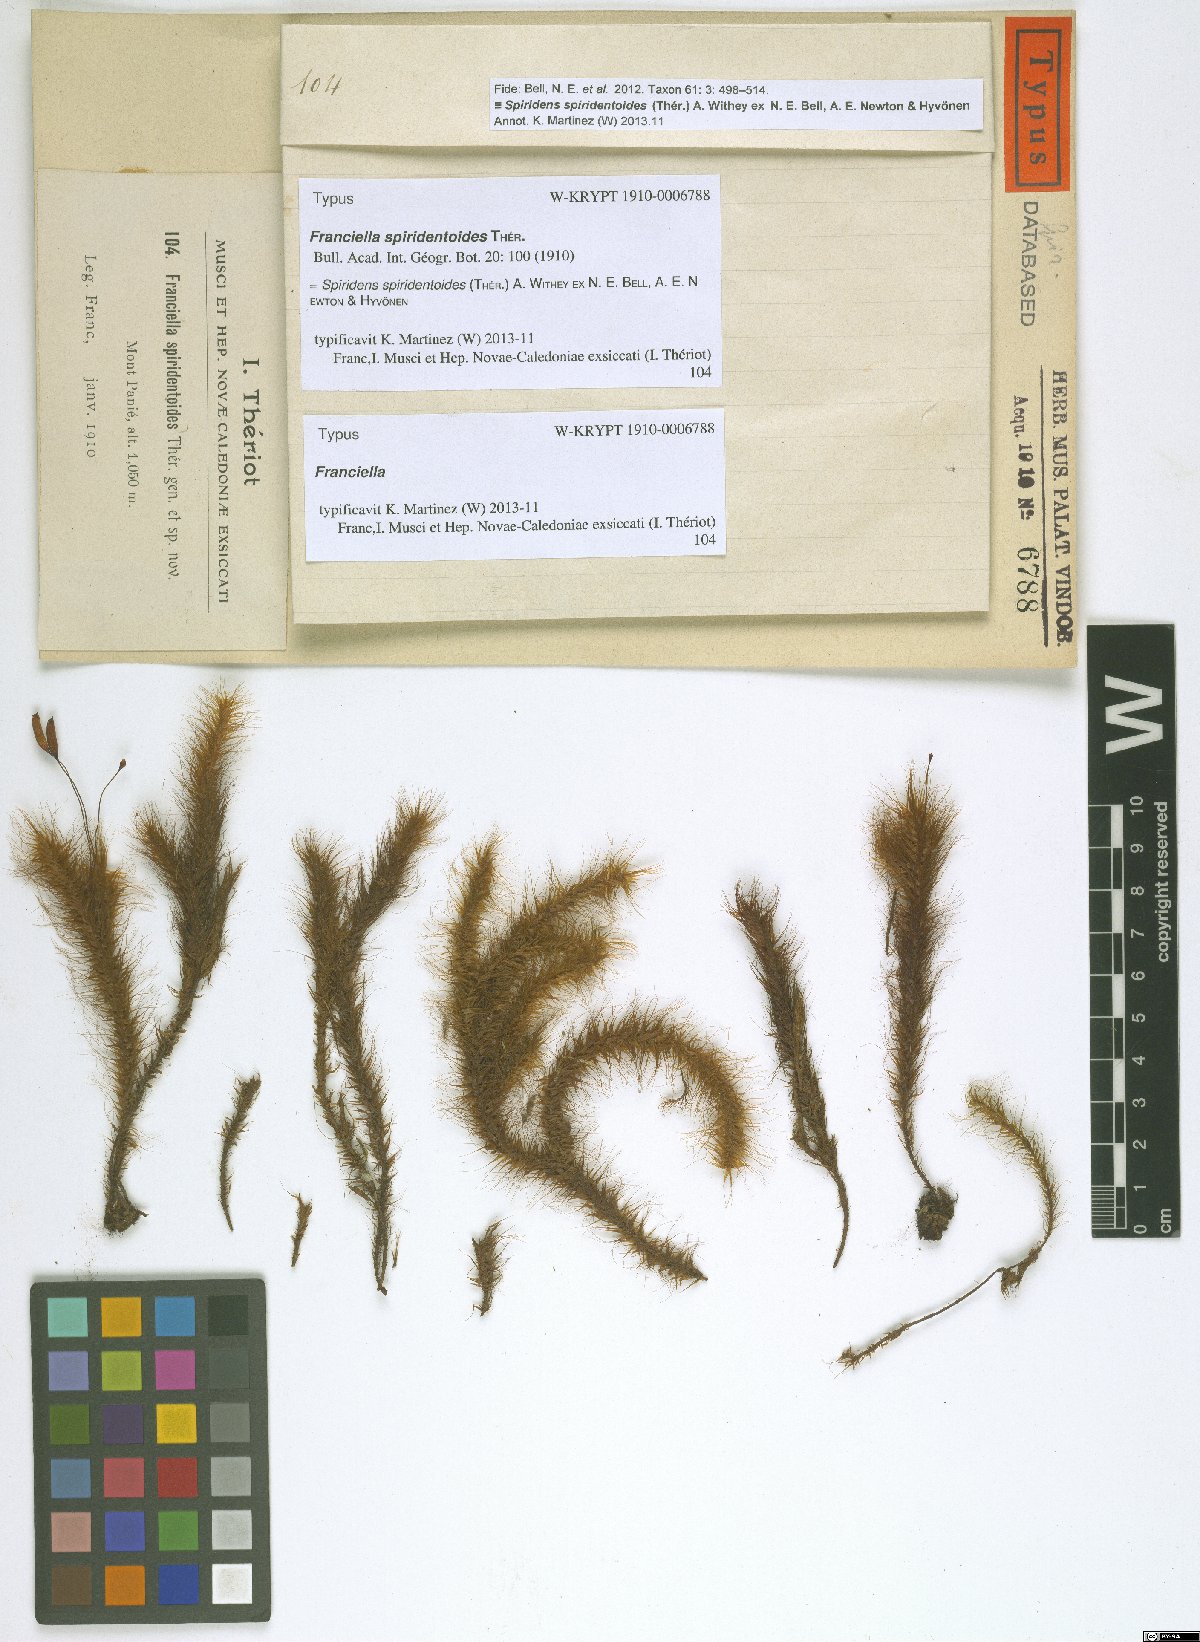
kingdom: Plantae
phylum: Bryophyta
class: Bryopsida
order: Hypnodendrales
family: Spiridentaceae
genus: Spiridens
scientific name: Spiridens spiridentoides
